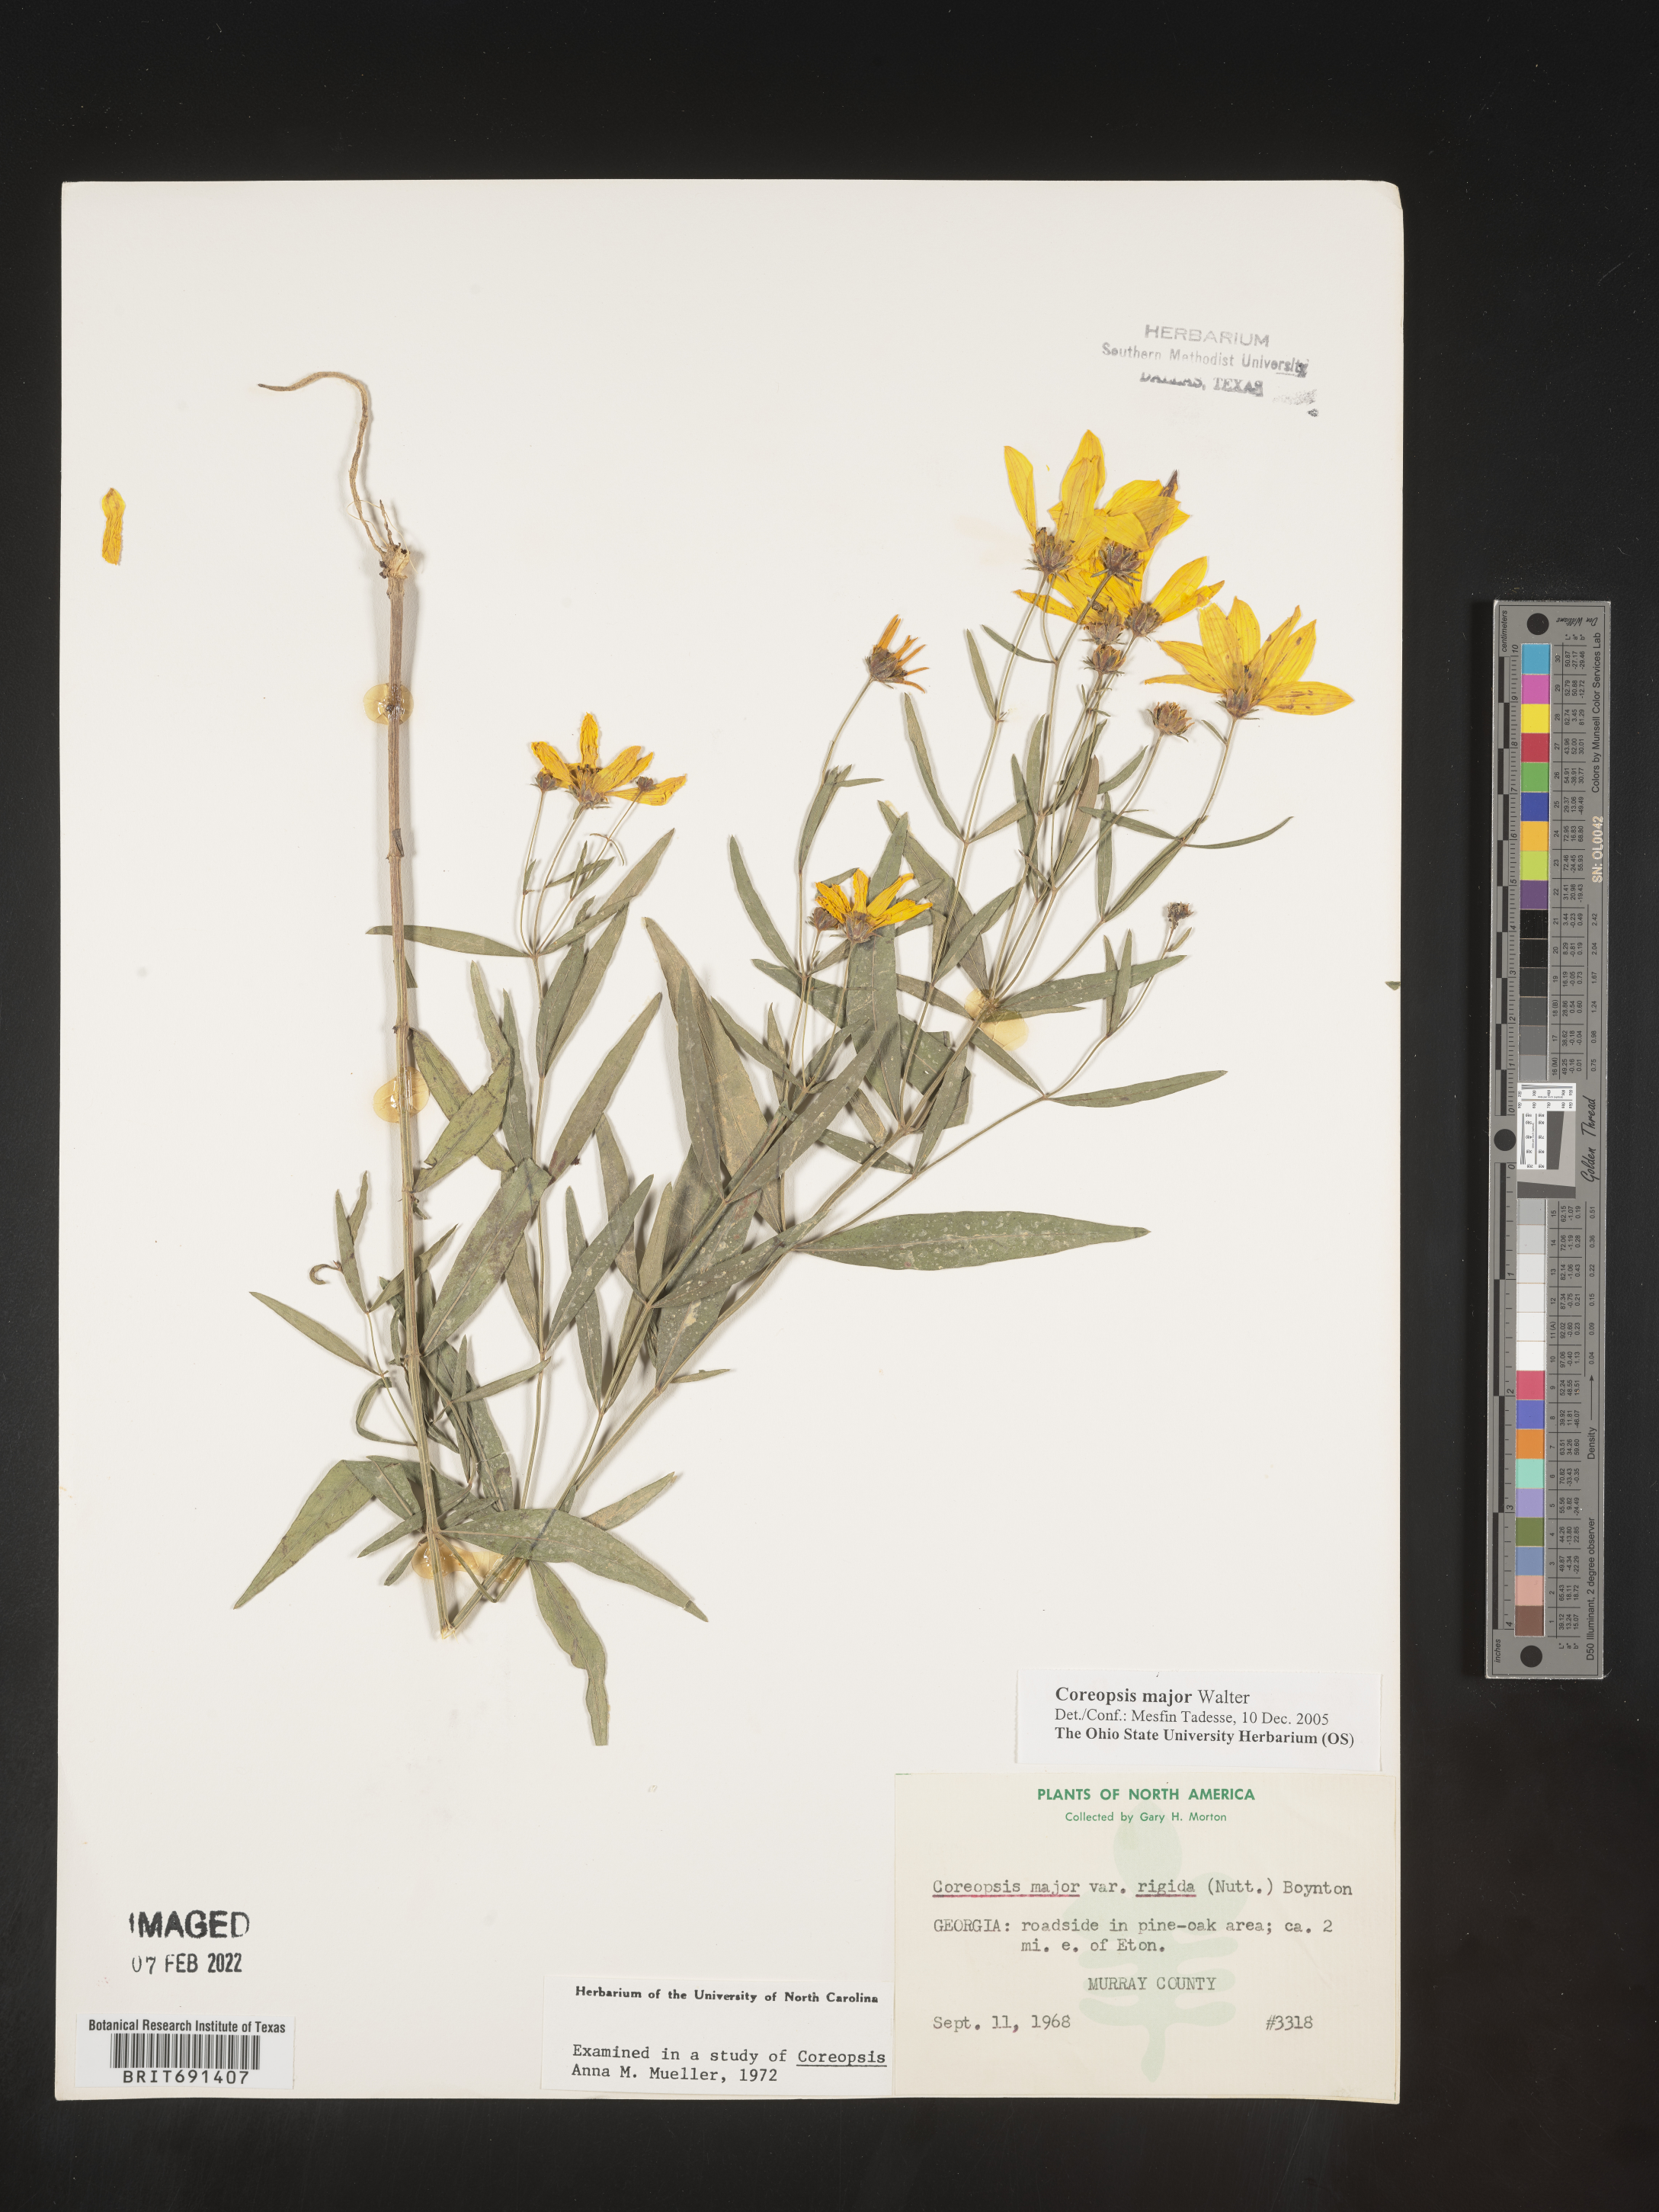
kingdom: Plantae
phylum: Tracheophyta
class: Magnoliopsida
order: Asterales
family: Asteraceae
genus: Coreopsis
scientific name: Coreopsis major
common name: Forest tickseed
